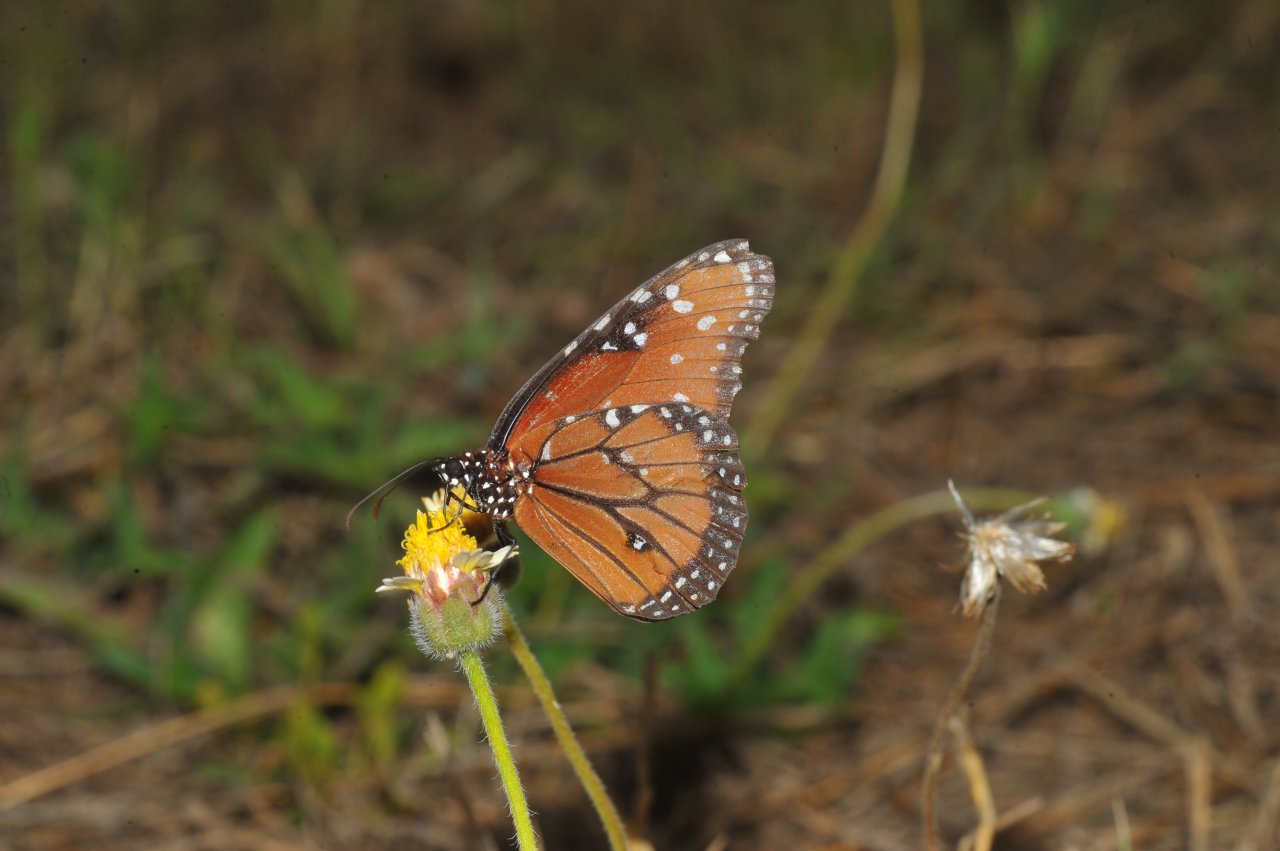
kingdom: Animalia
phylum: Arthropoda
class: Insecta
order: Lepidoptera
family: Nymphalidae
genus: Danaus
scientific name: Danaus gilippus
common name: Queen
